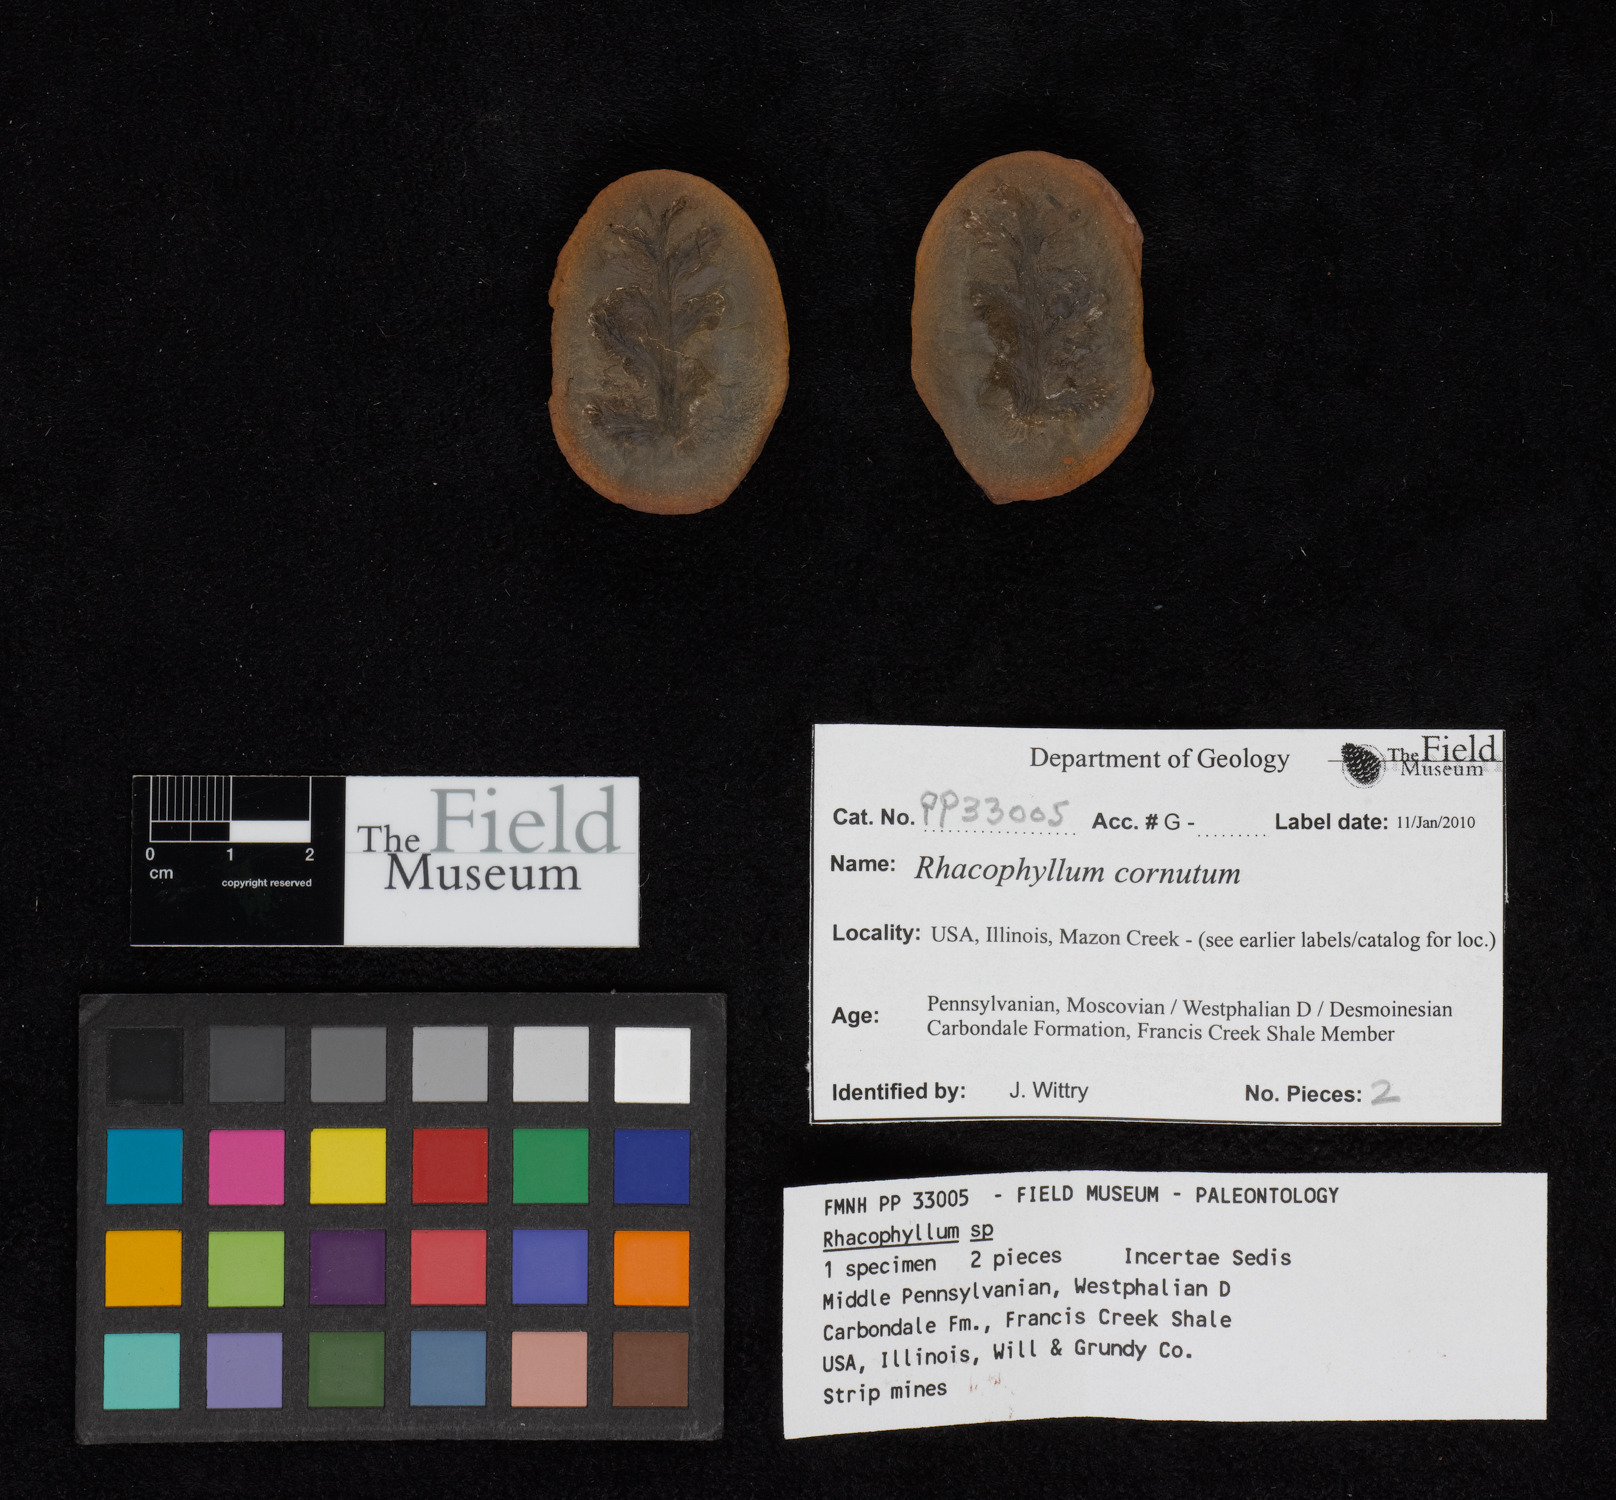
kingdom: Plantae
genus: Rhacophyllum
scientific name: Rhacophyllum
